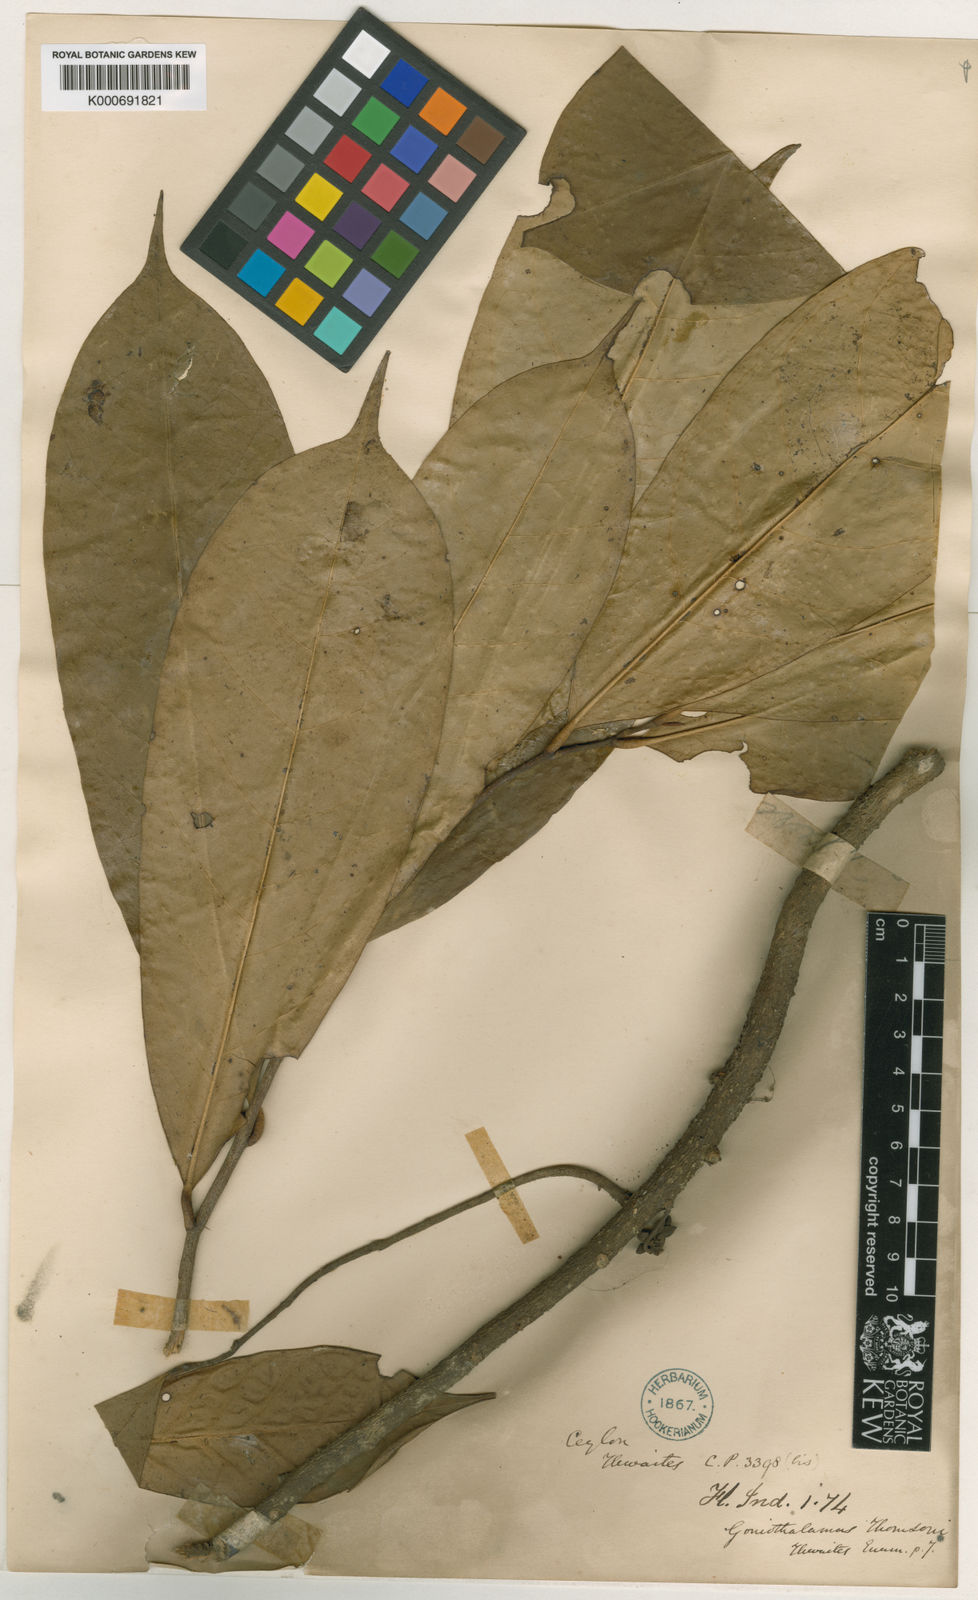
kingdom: Plantae
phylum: Tracheophyta
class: Magnoliopsida
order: Magnoliales
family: Annonaceae
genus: Goniothalamus
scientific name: Goniothalamus thomsonii
